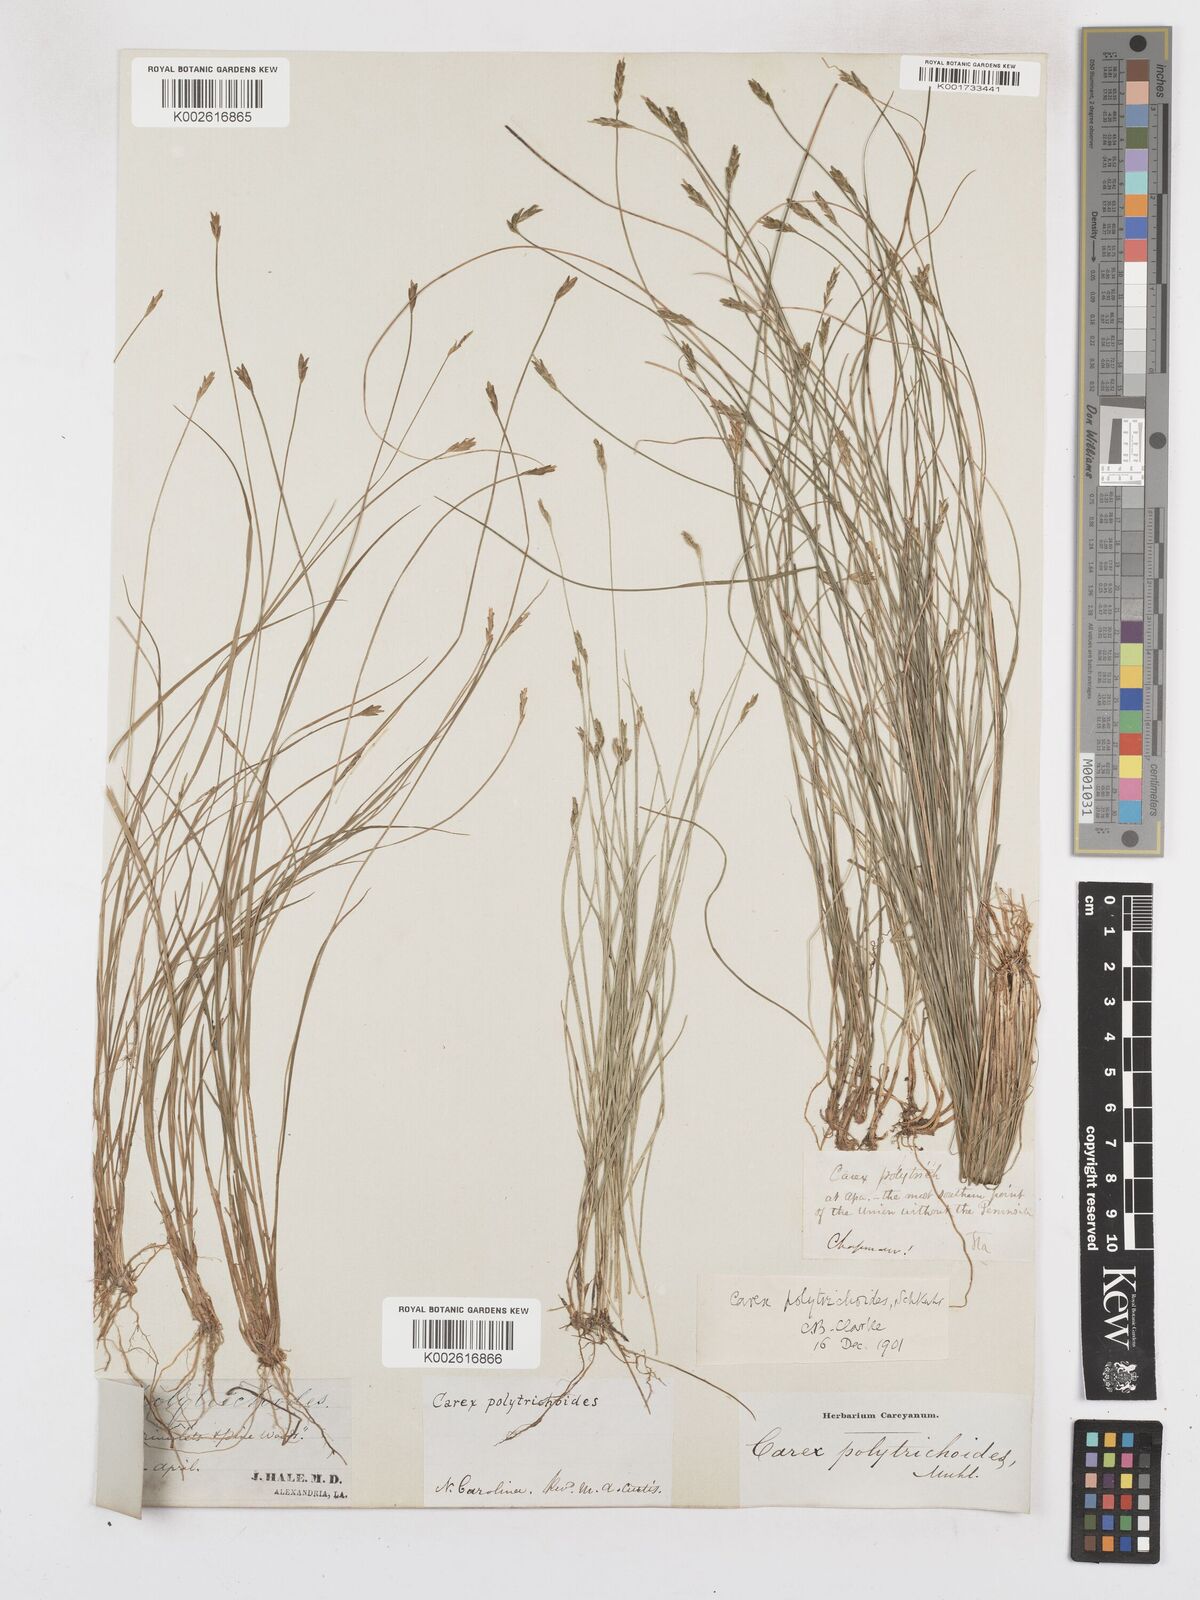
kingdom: Plantae
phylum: Tracheophyta
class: Liliopsida
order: Poales
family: Cyperaceae
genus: Carex
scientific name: Carex leptalea
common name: Bristly-stalked sedge
